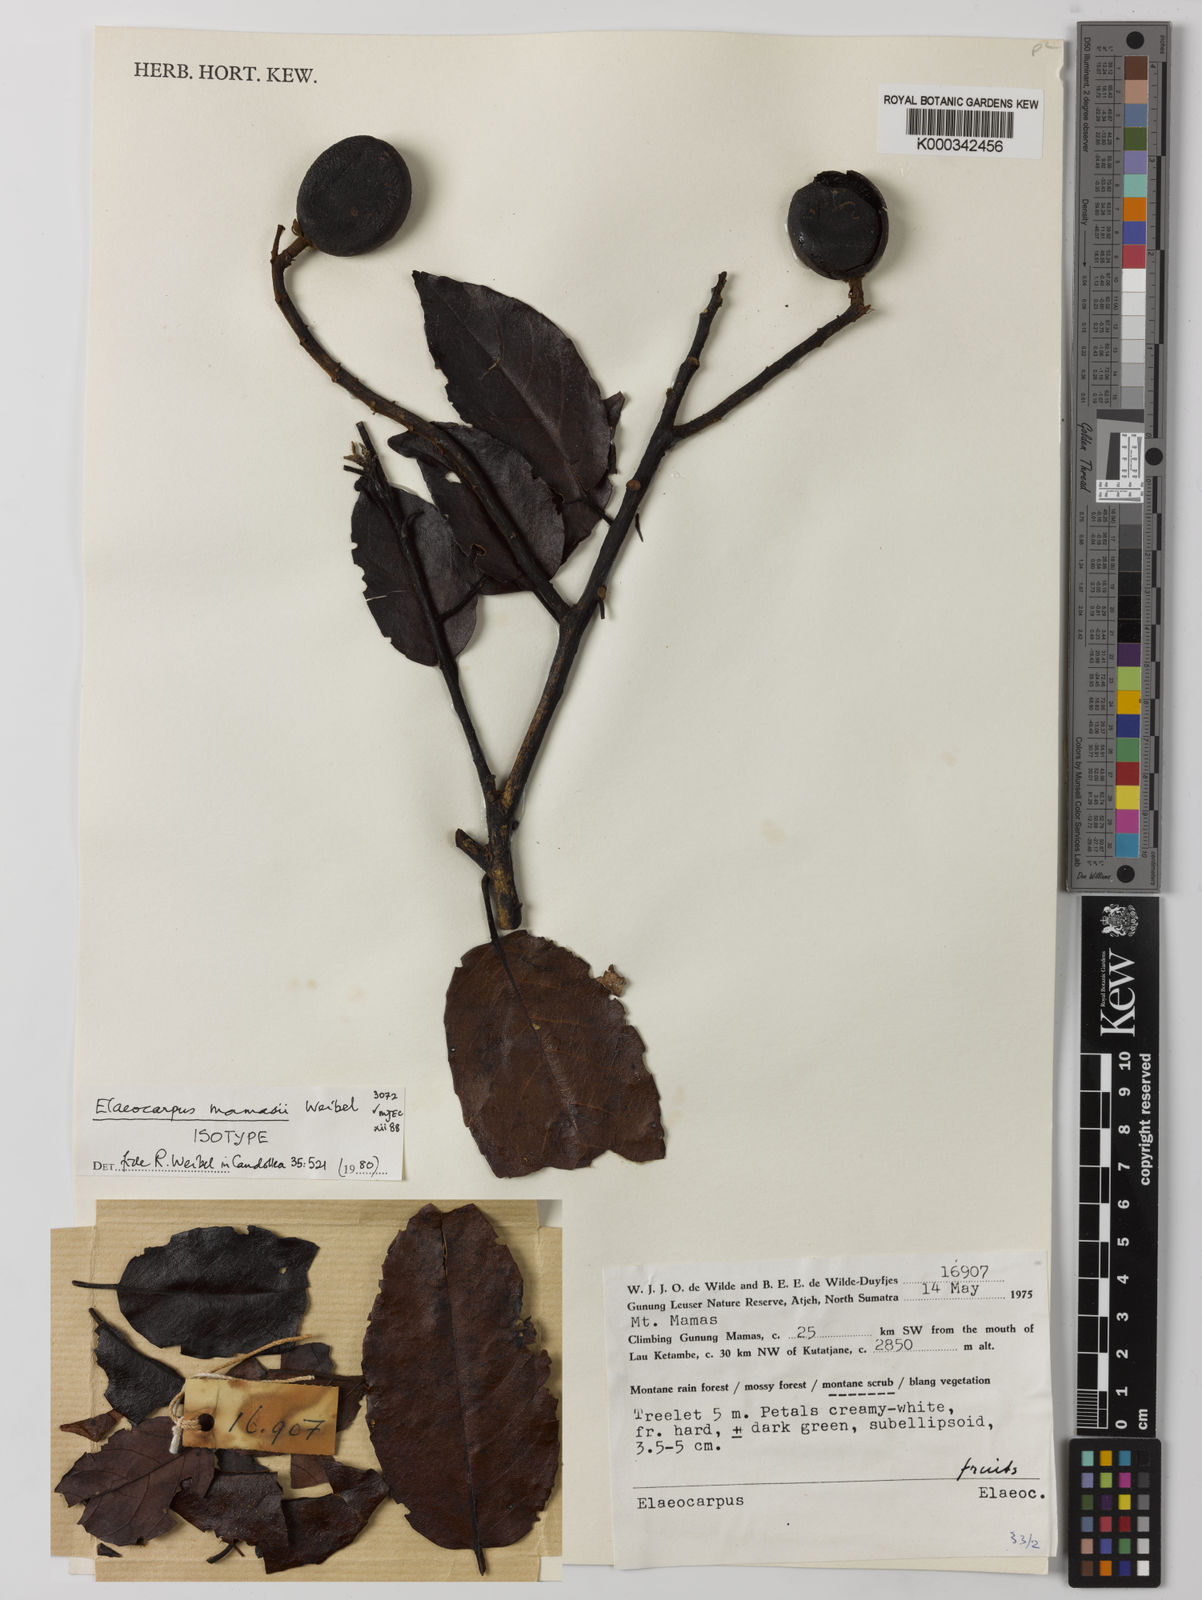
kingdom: Plantae
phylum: Tracheophyta
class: Magnoliopsida
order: Oxalidales
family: Elaeocarpaceae
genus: Elaeocarpus
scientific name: Elaeocarpus mamasii
